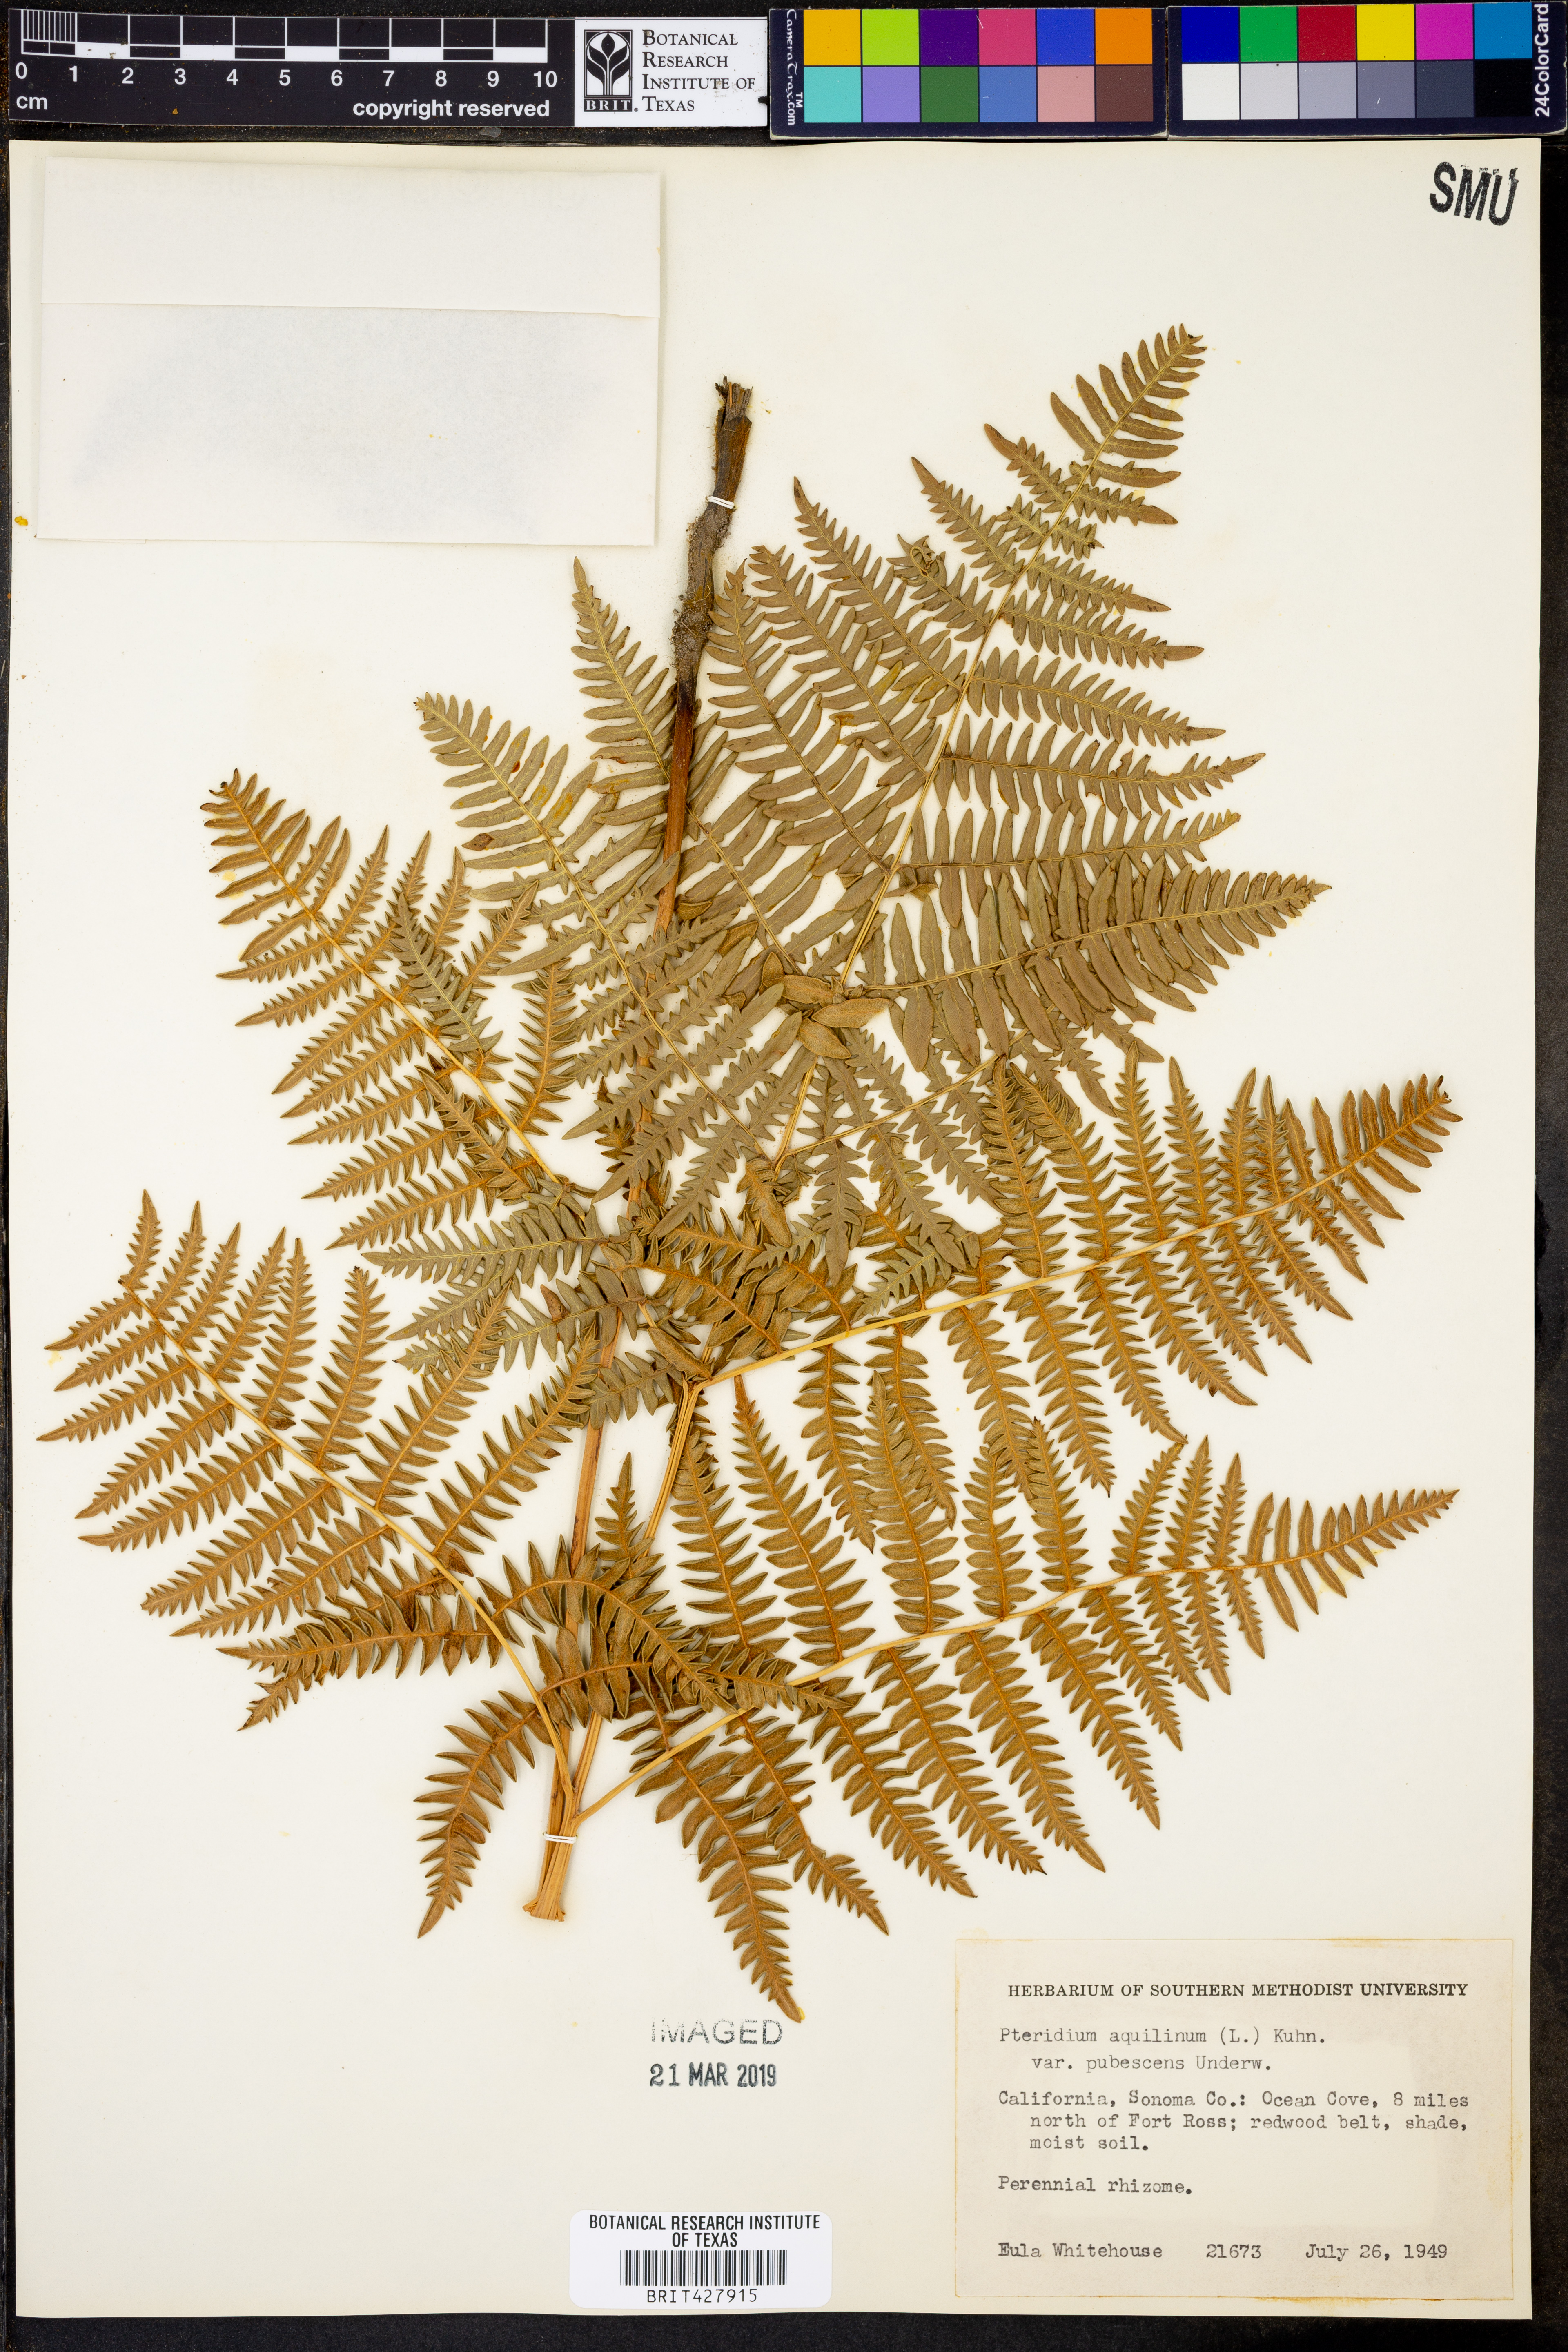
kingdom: Plantae
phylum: Tracheophyta
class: Polypodiopsida
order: Polypodiales
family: Dennstaedtiaceae
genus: Pteridium
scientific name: Pteridium aquilinum
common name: Bracken
